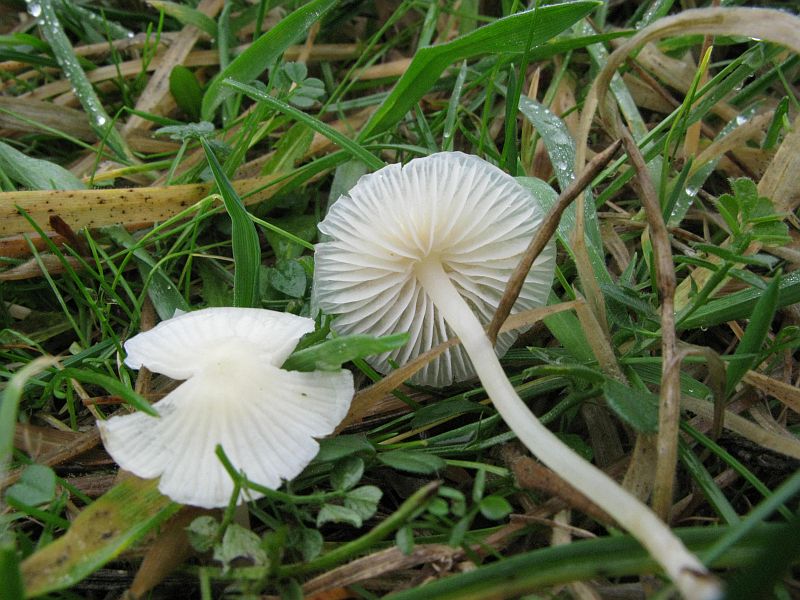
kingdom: Fungi
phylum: Basidiomycota
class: Agaricomycetes
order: Agaricales
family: Mycenaceae
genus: Atheniella
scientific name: Atheniella flavoalba
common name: gulhvid huesvamp
